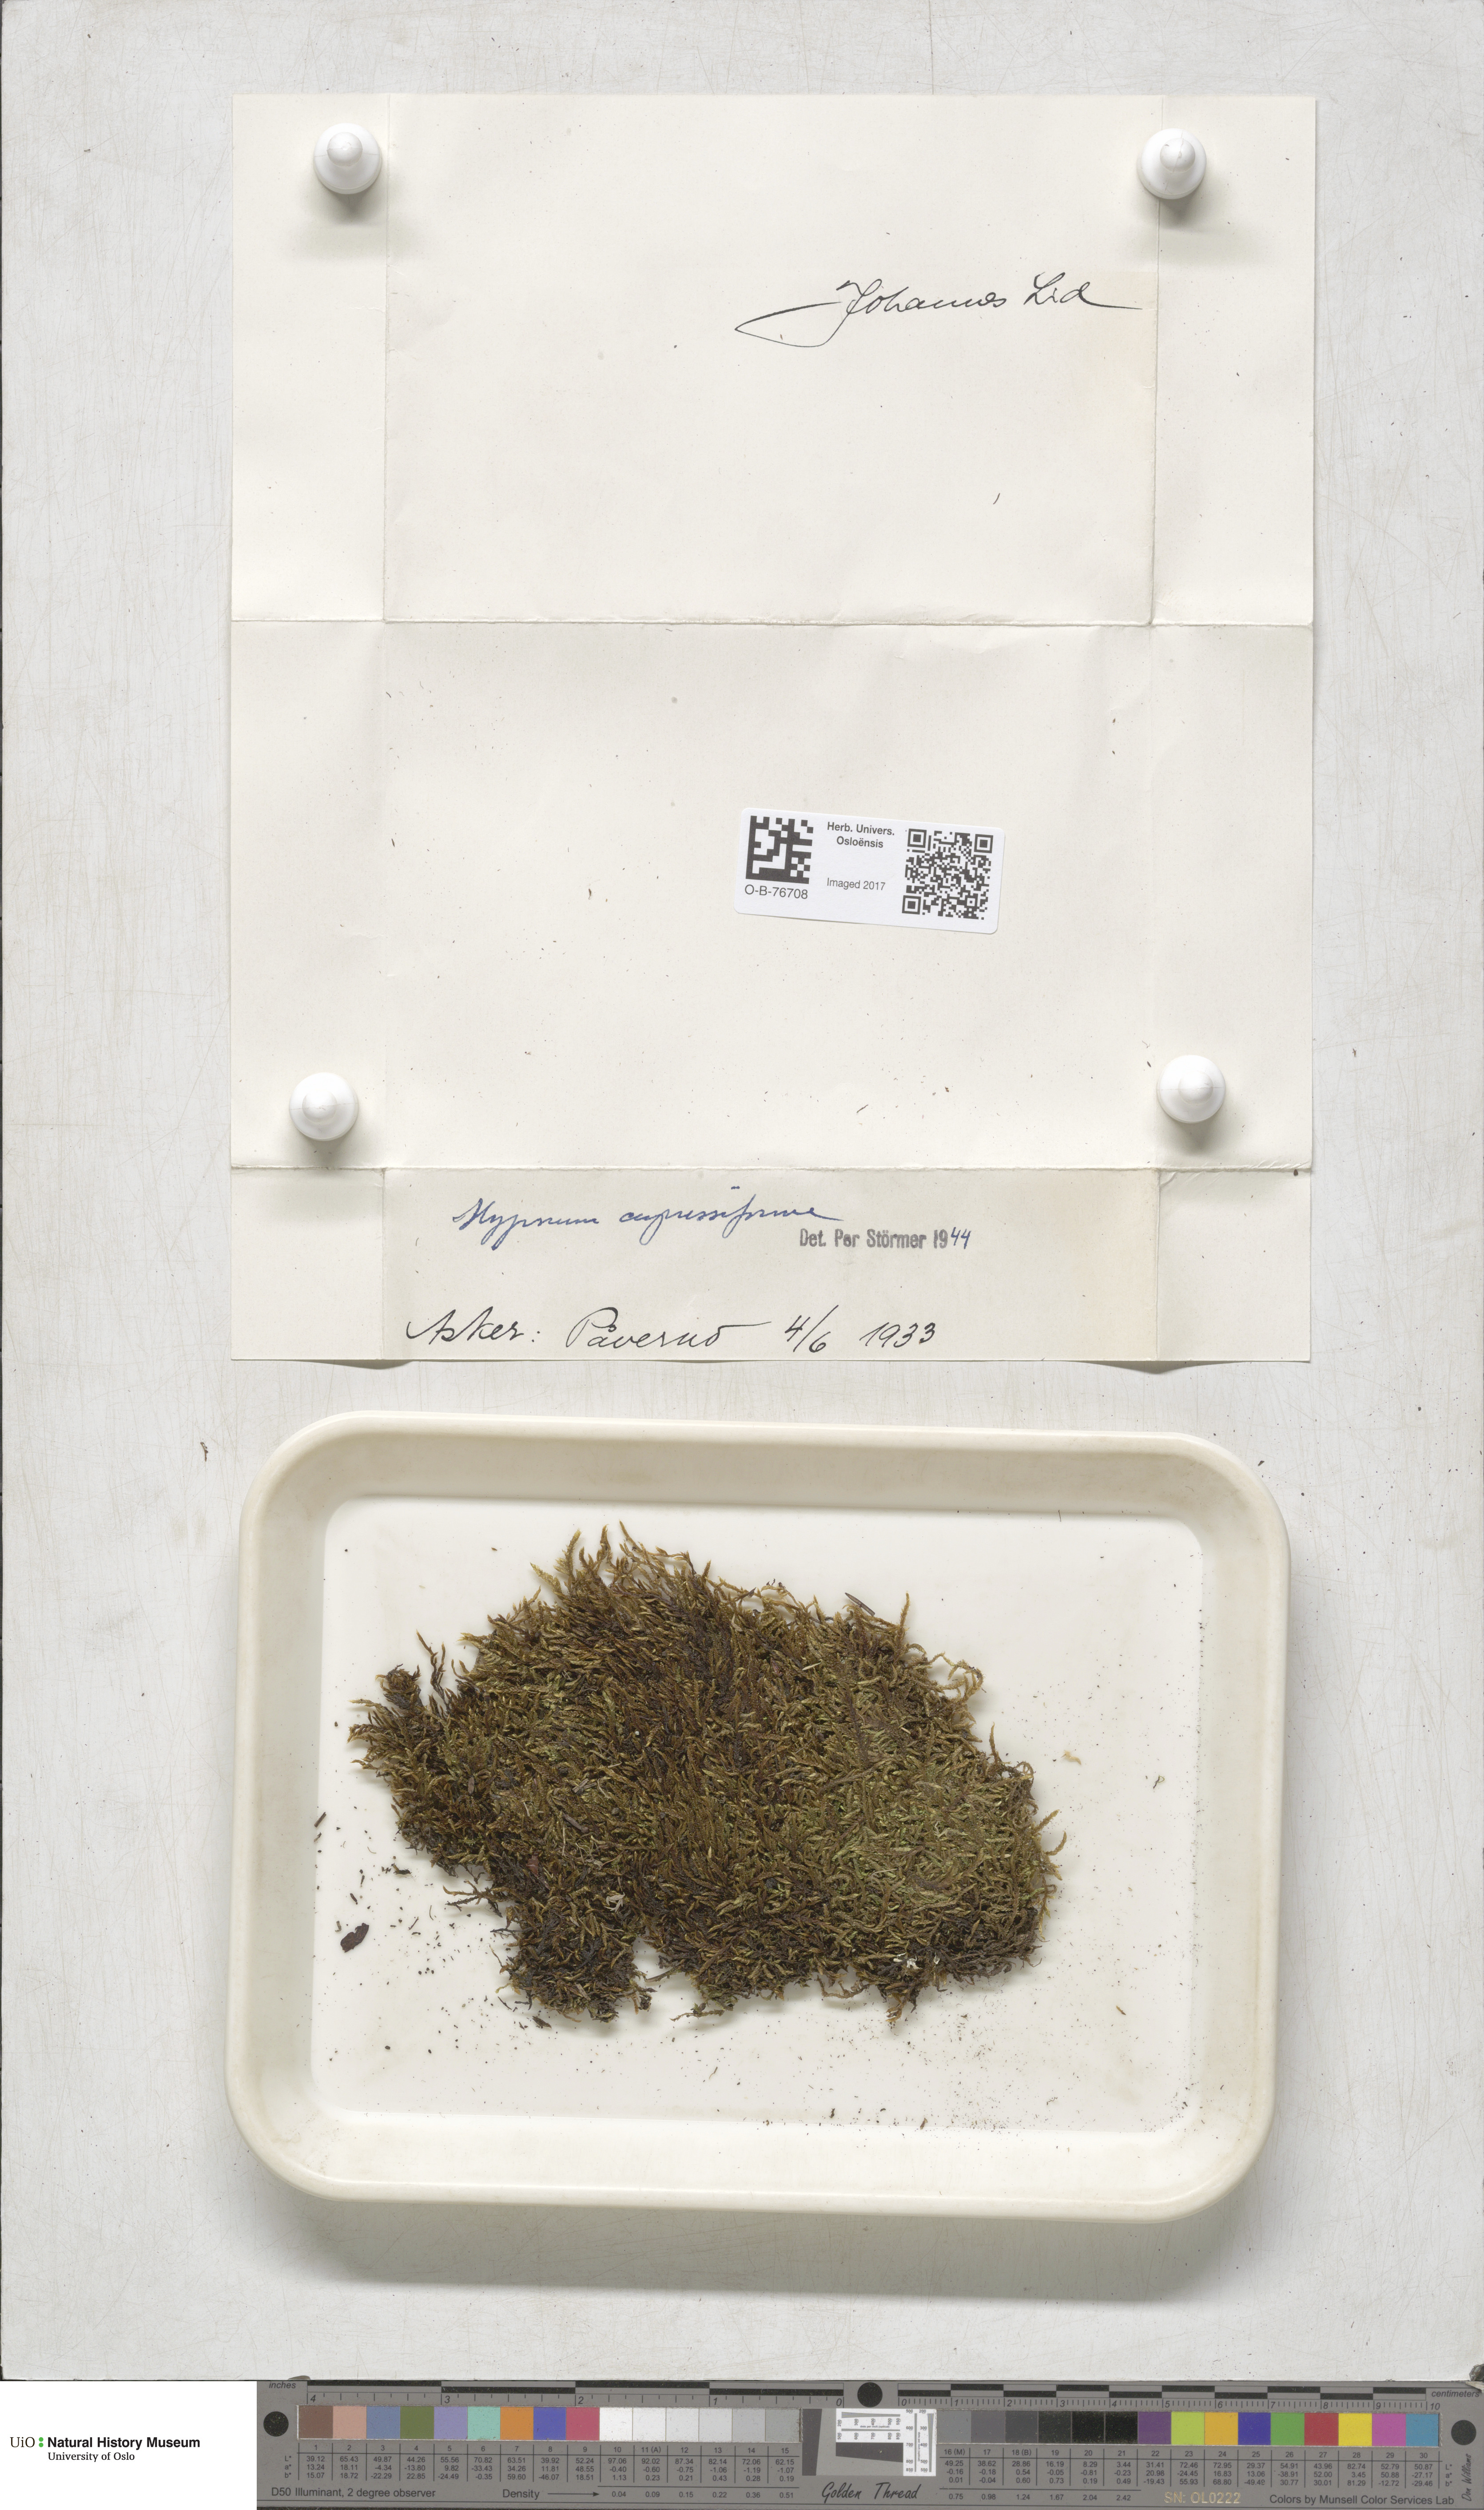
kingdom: Plantae
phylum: Bryophyta
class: Bryopsida
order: Hypnales
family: Hypnaceae
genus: Hypnum
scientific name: Hypnum cupressiforme
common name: Cypress-leaved plait-moss
